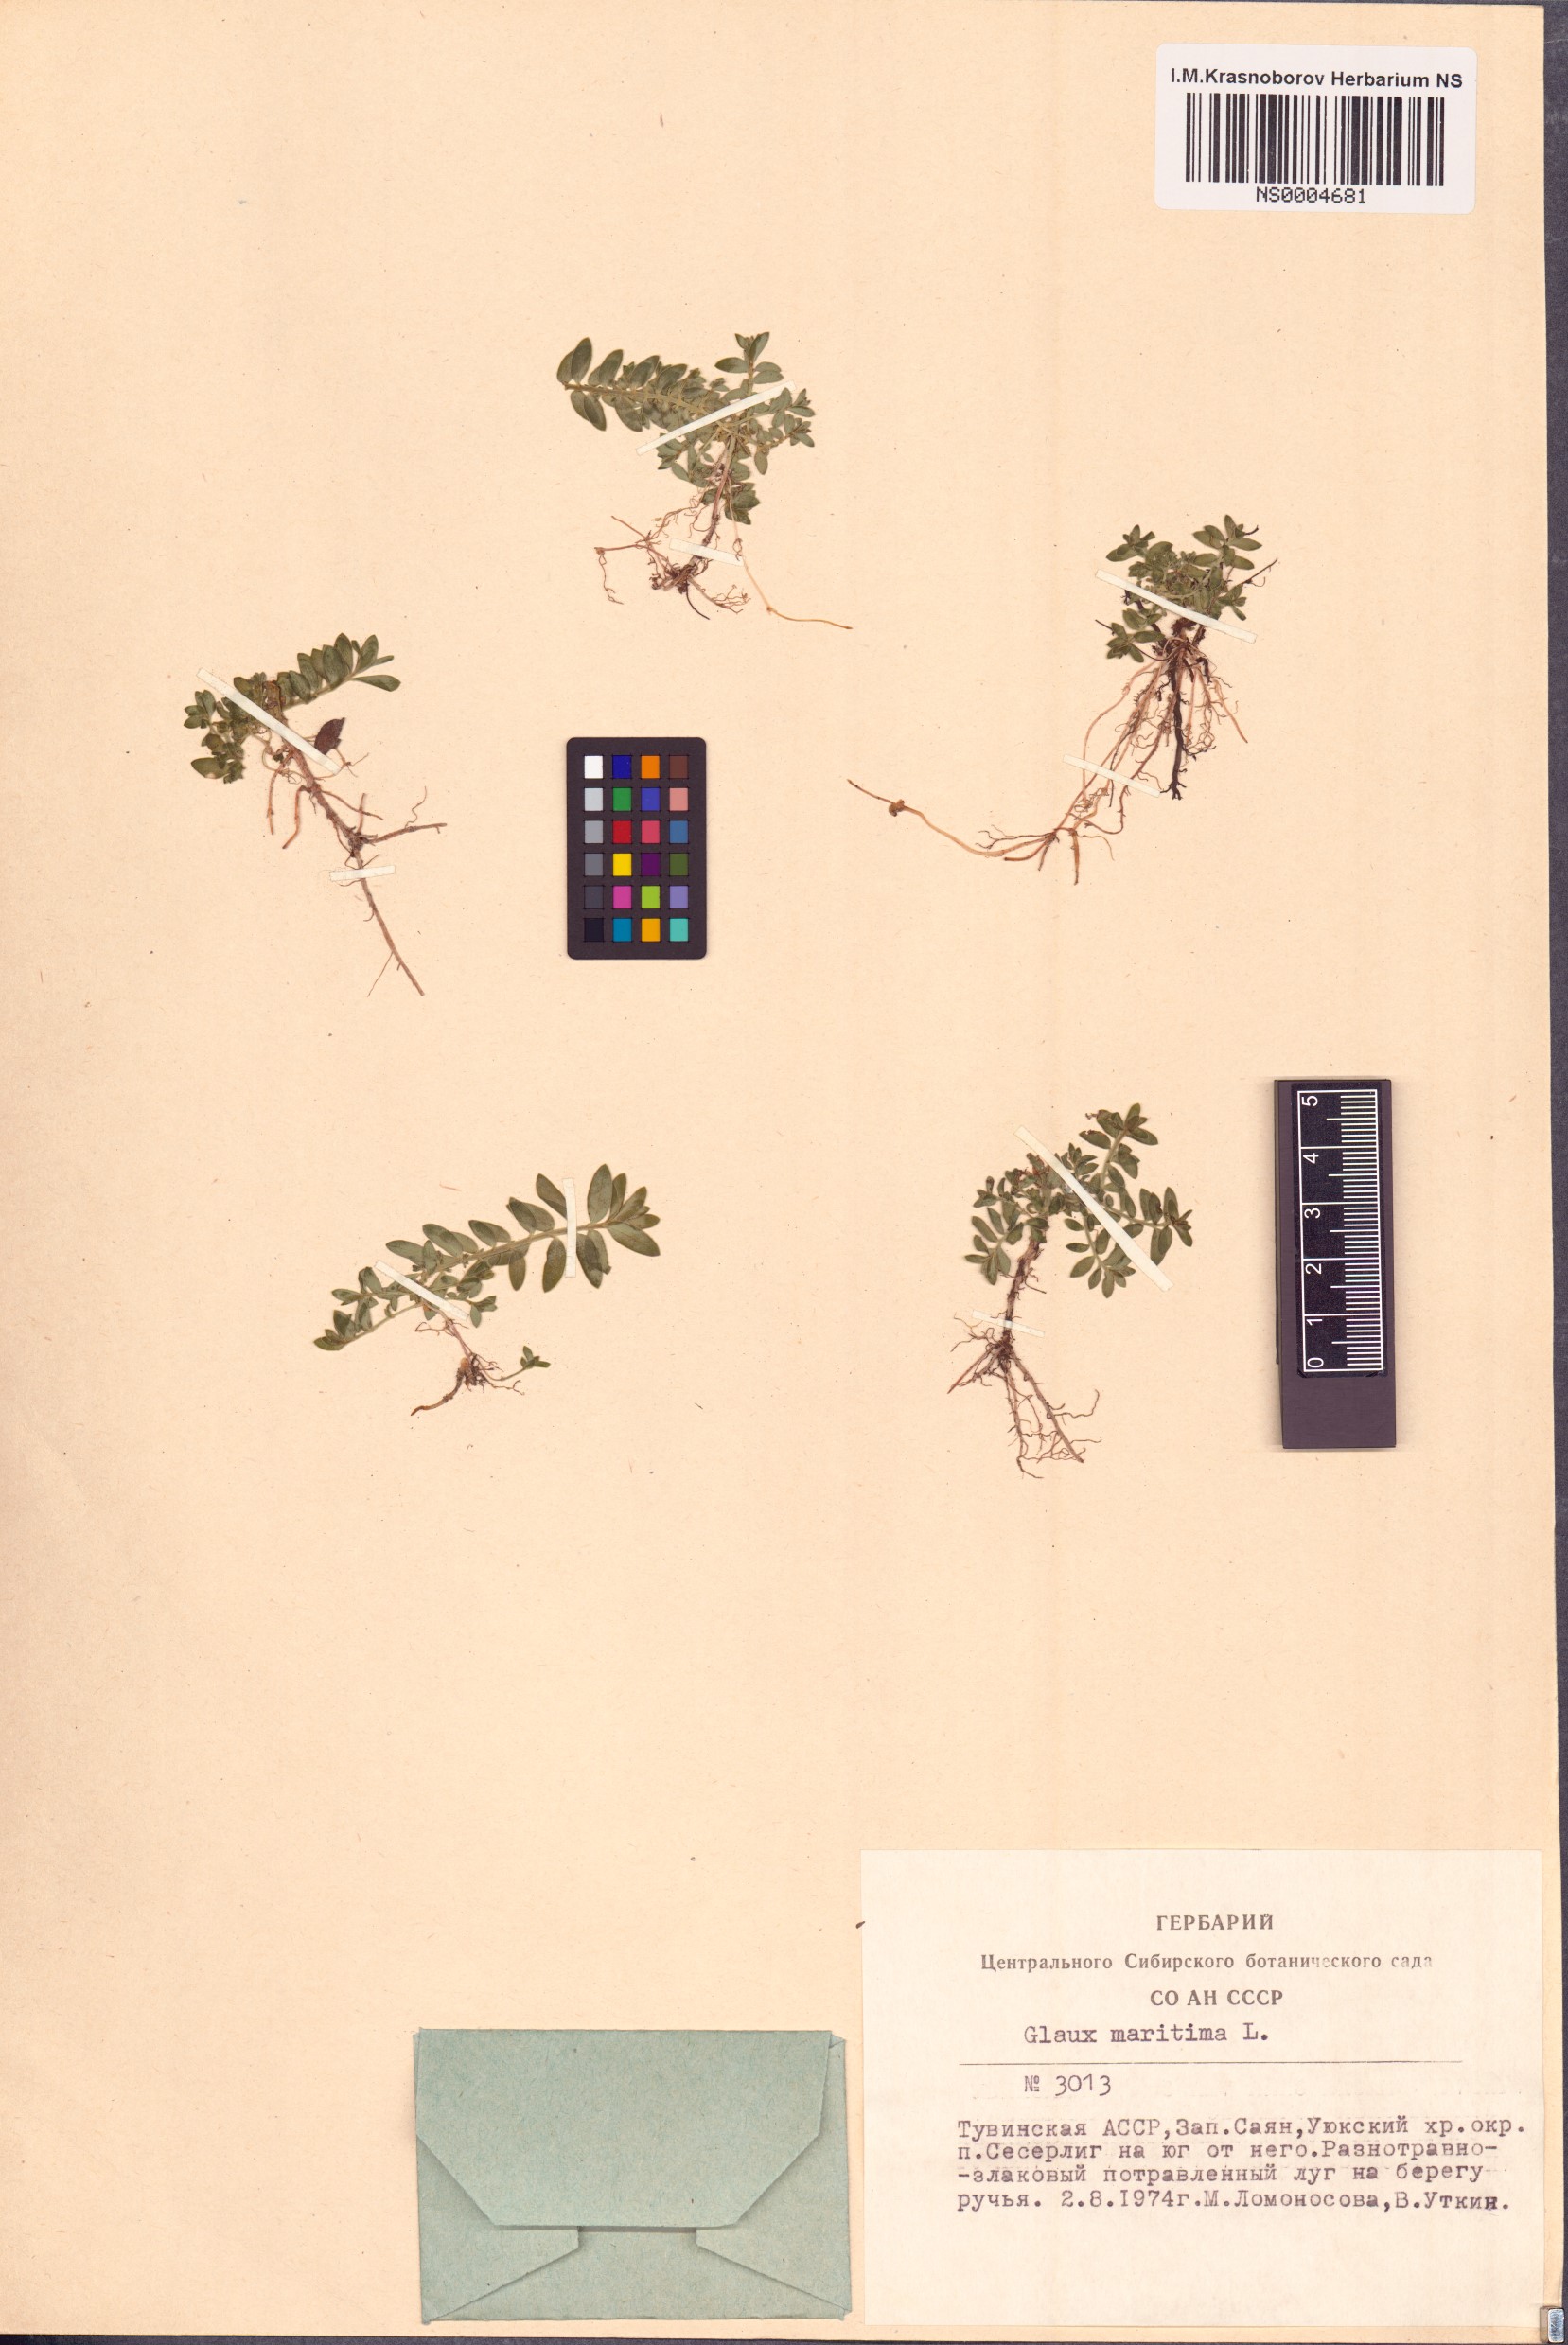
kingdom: Plantae
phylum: Tracheophyta
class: Magnoliopsida
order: Ericales
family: Primulaceae
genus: Lysimachia
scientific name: Lysimachia maritima
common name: Sea milkwort
